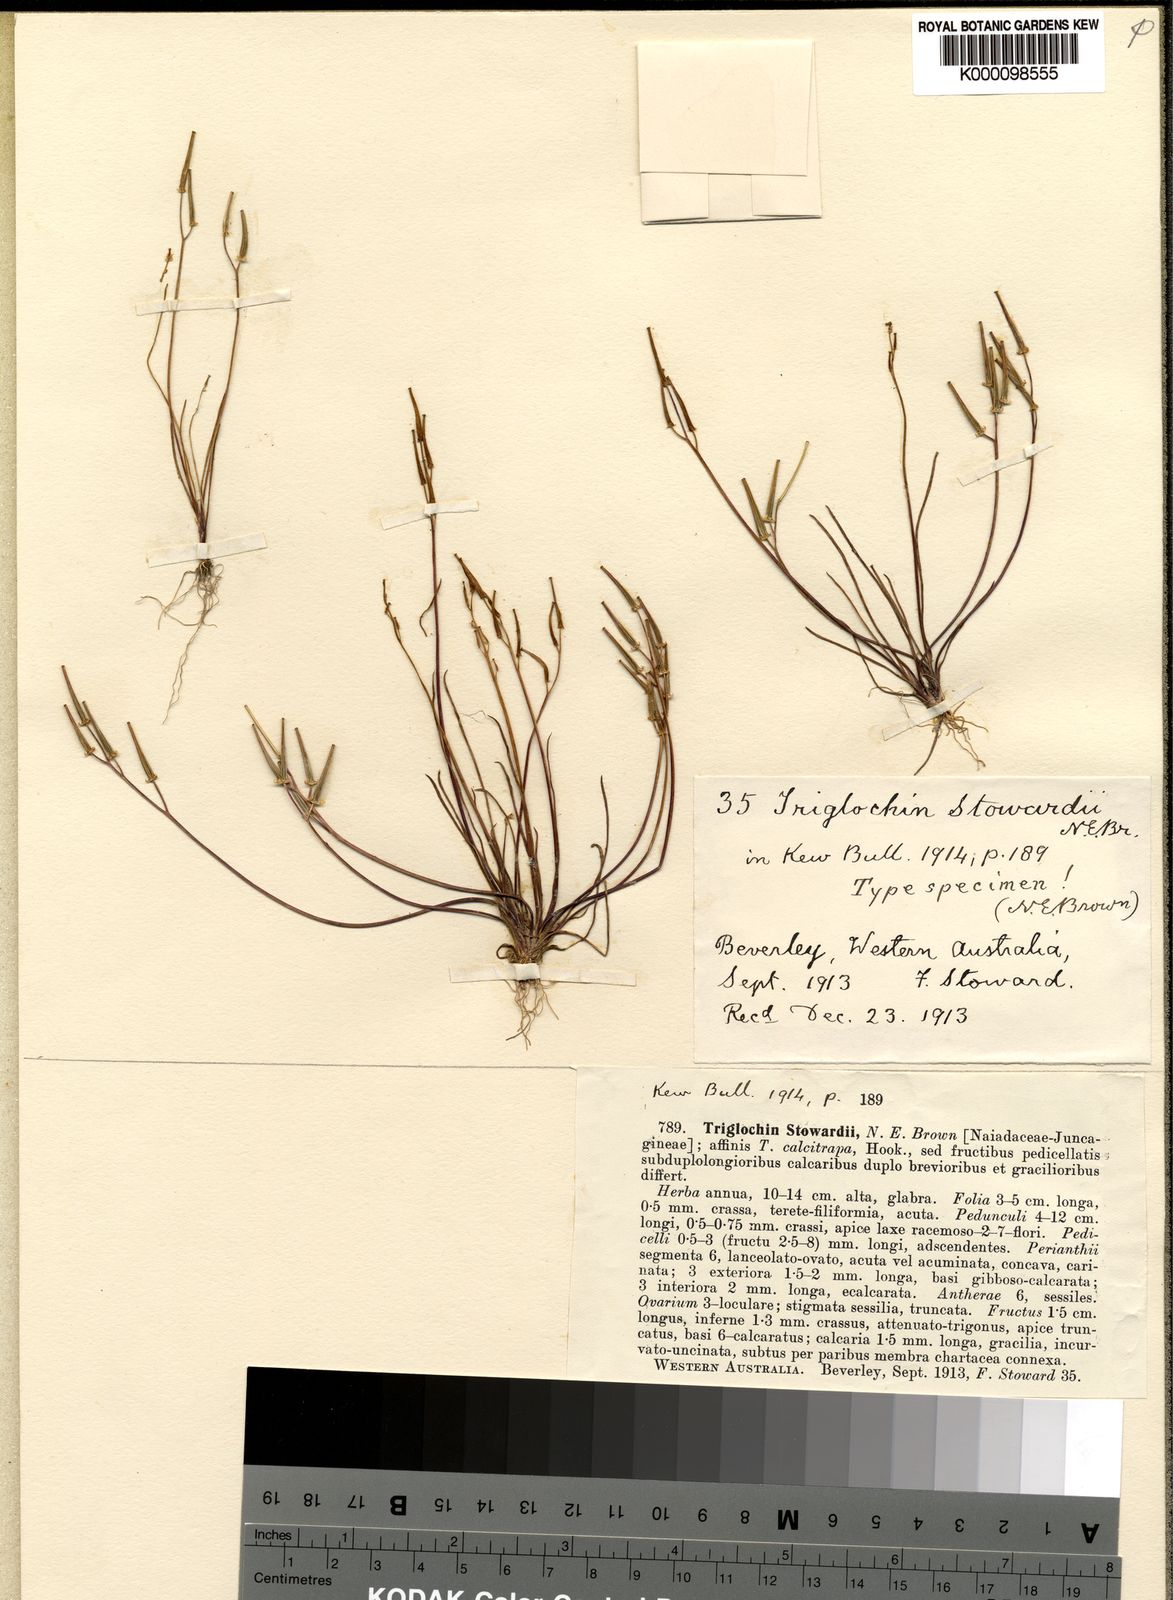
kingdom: Plantae
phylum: Tracheophyta
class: Liliopsida
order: Alismatales
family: Juncaginaceae
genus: Triglochin
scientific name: Triglochin
